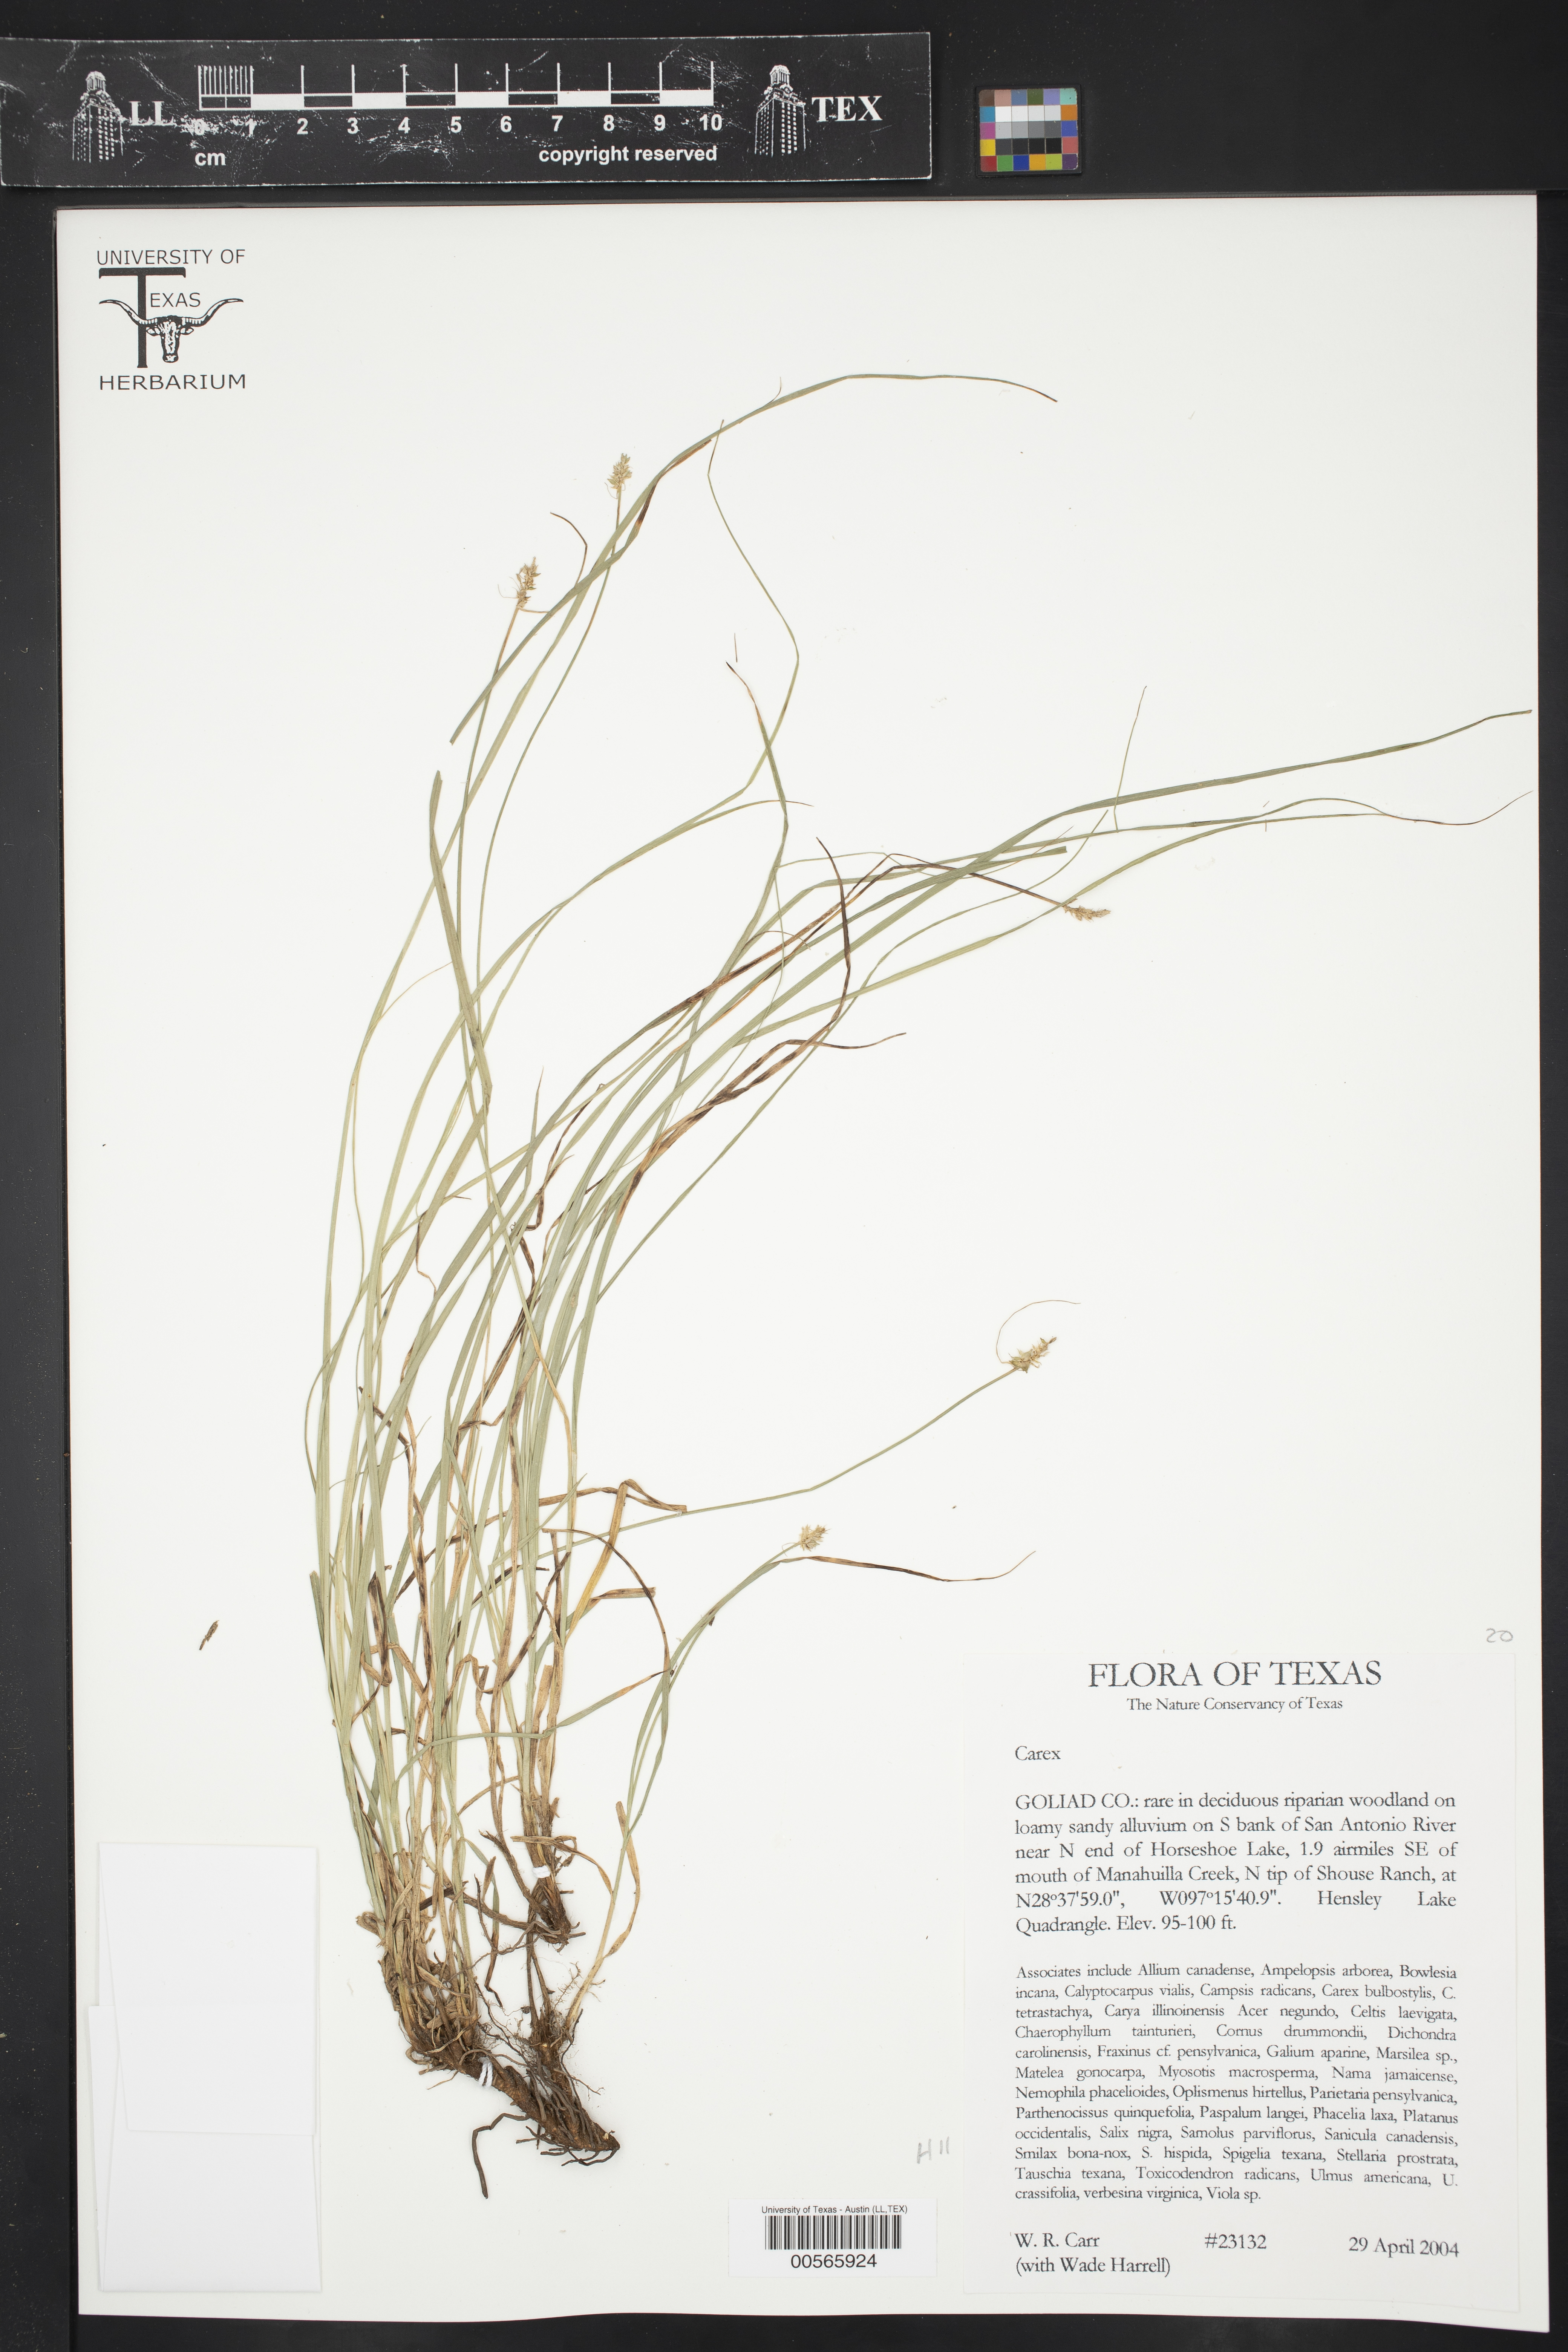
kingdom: Plantae
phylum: Tracheophyta
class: Liliopsida
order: Poales
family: Cyperaceae
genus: Carex
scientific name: Carex
